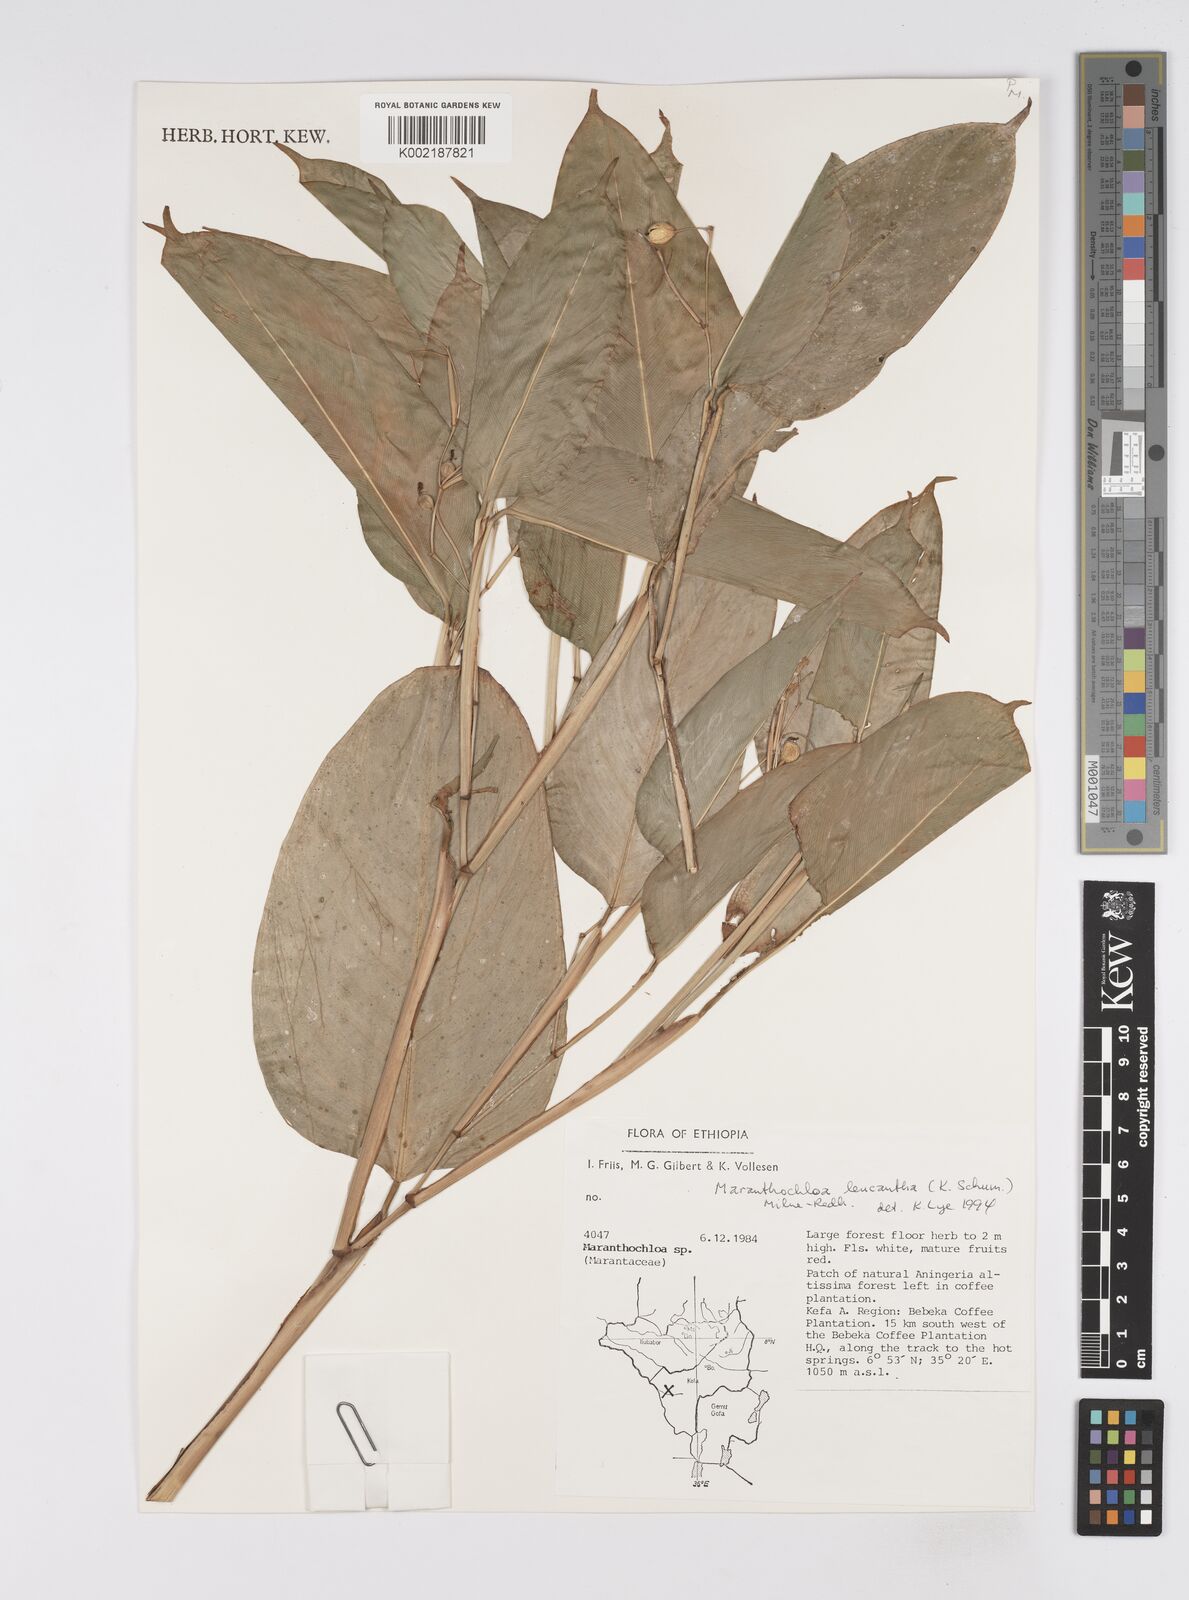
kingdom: Plantae
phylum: Tracheophyta
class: Liliopsida
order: Zingiberales
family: Marantaceae
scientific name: Marantaceae
